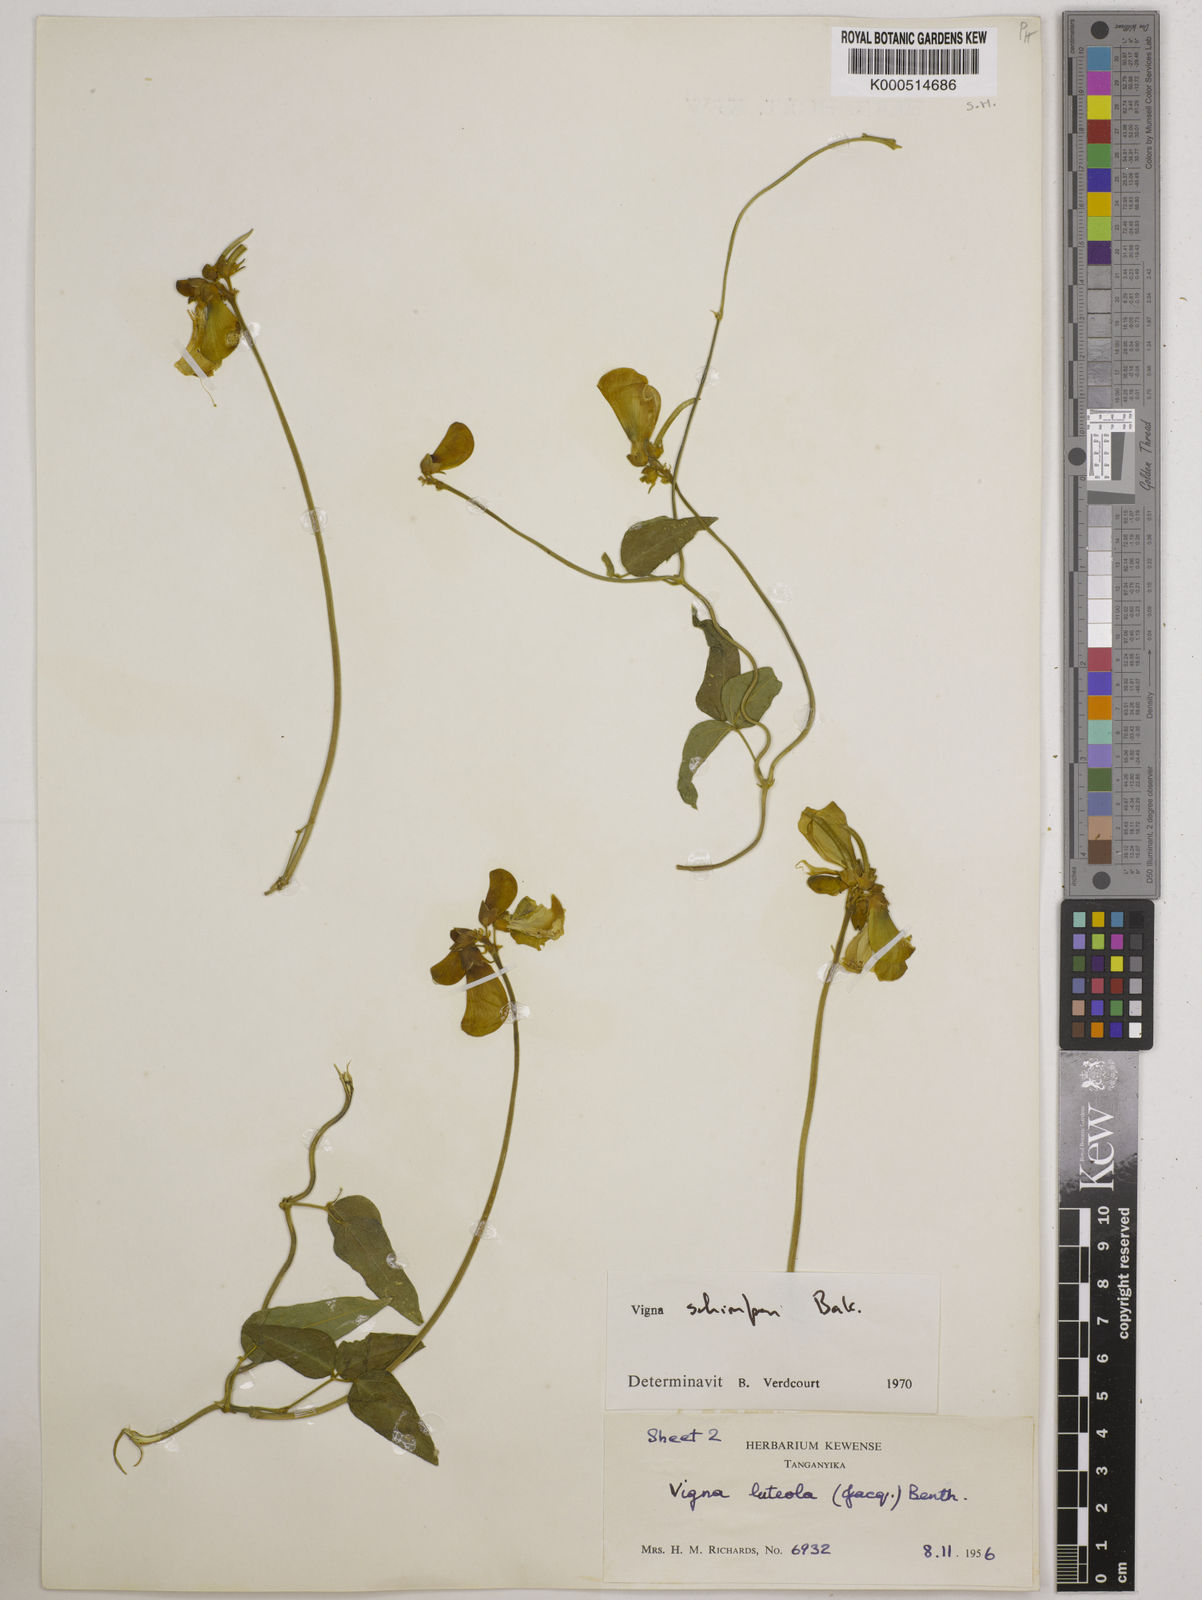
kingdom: Plantae
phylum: Tracheophyta
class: Magnoliopsida
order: Fabales
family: Fabaceae
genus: Vigna
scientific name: Vigna schimperi
